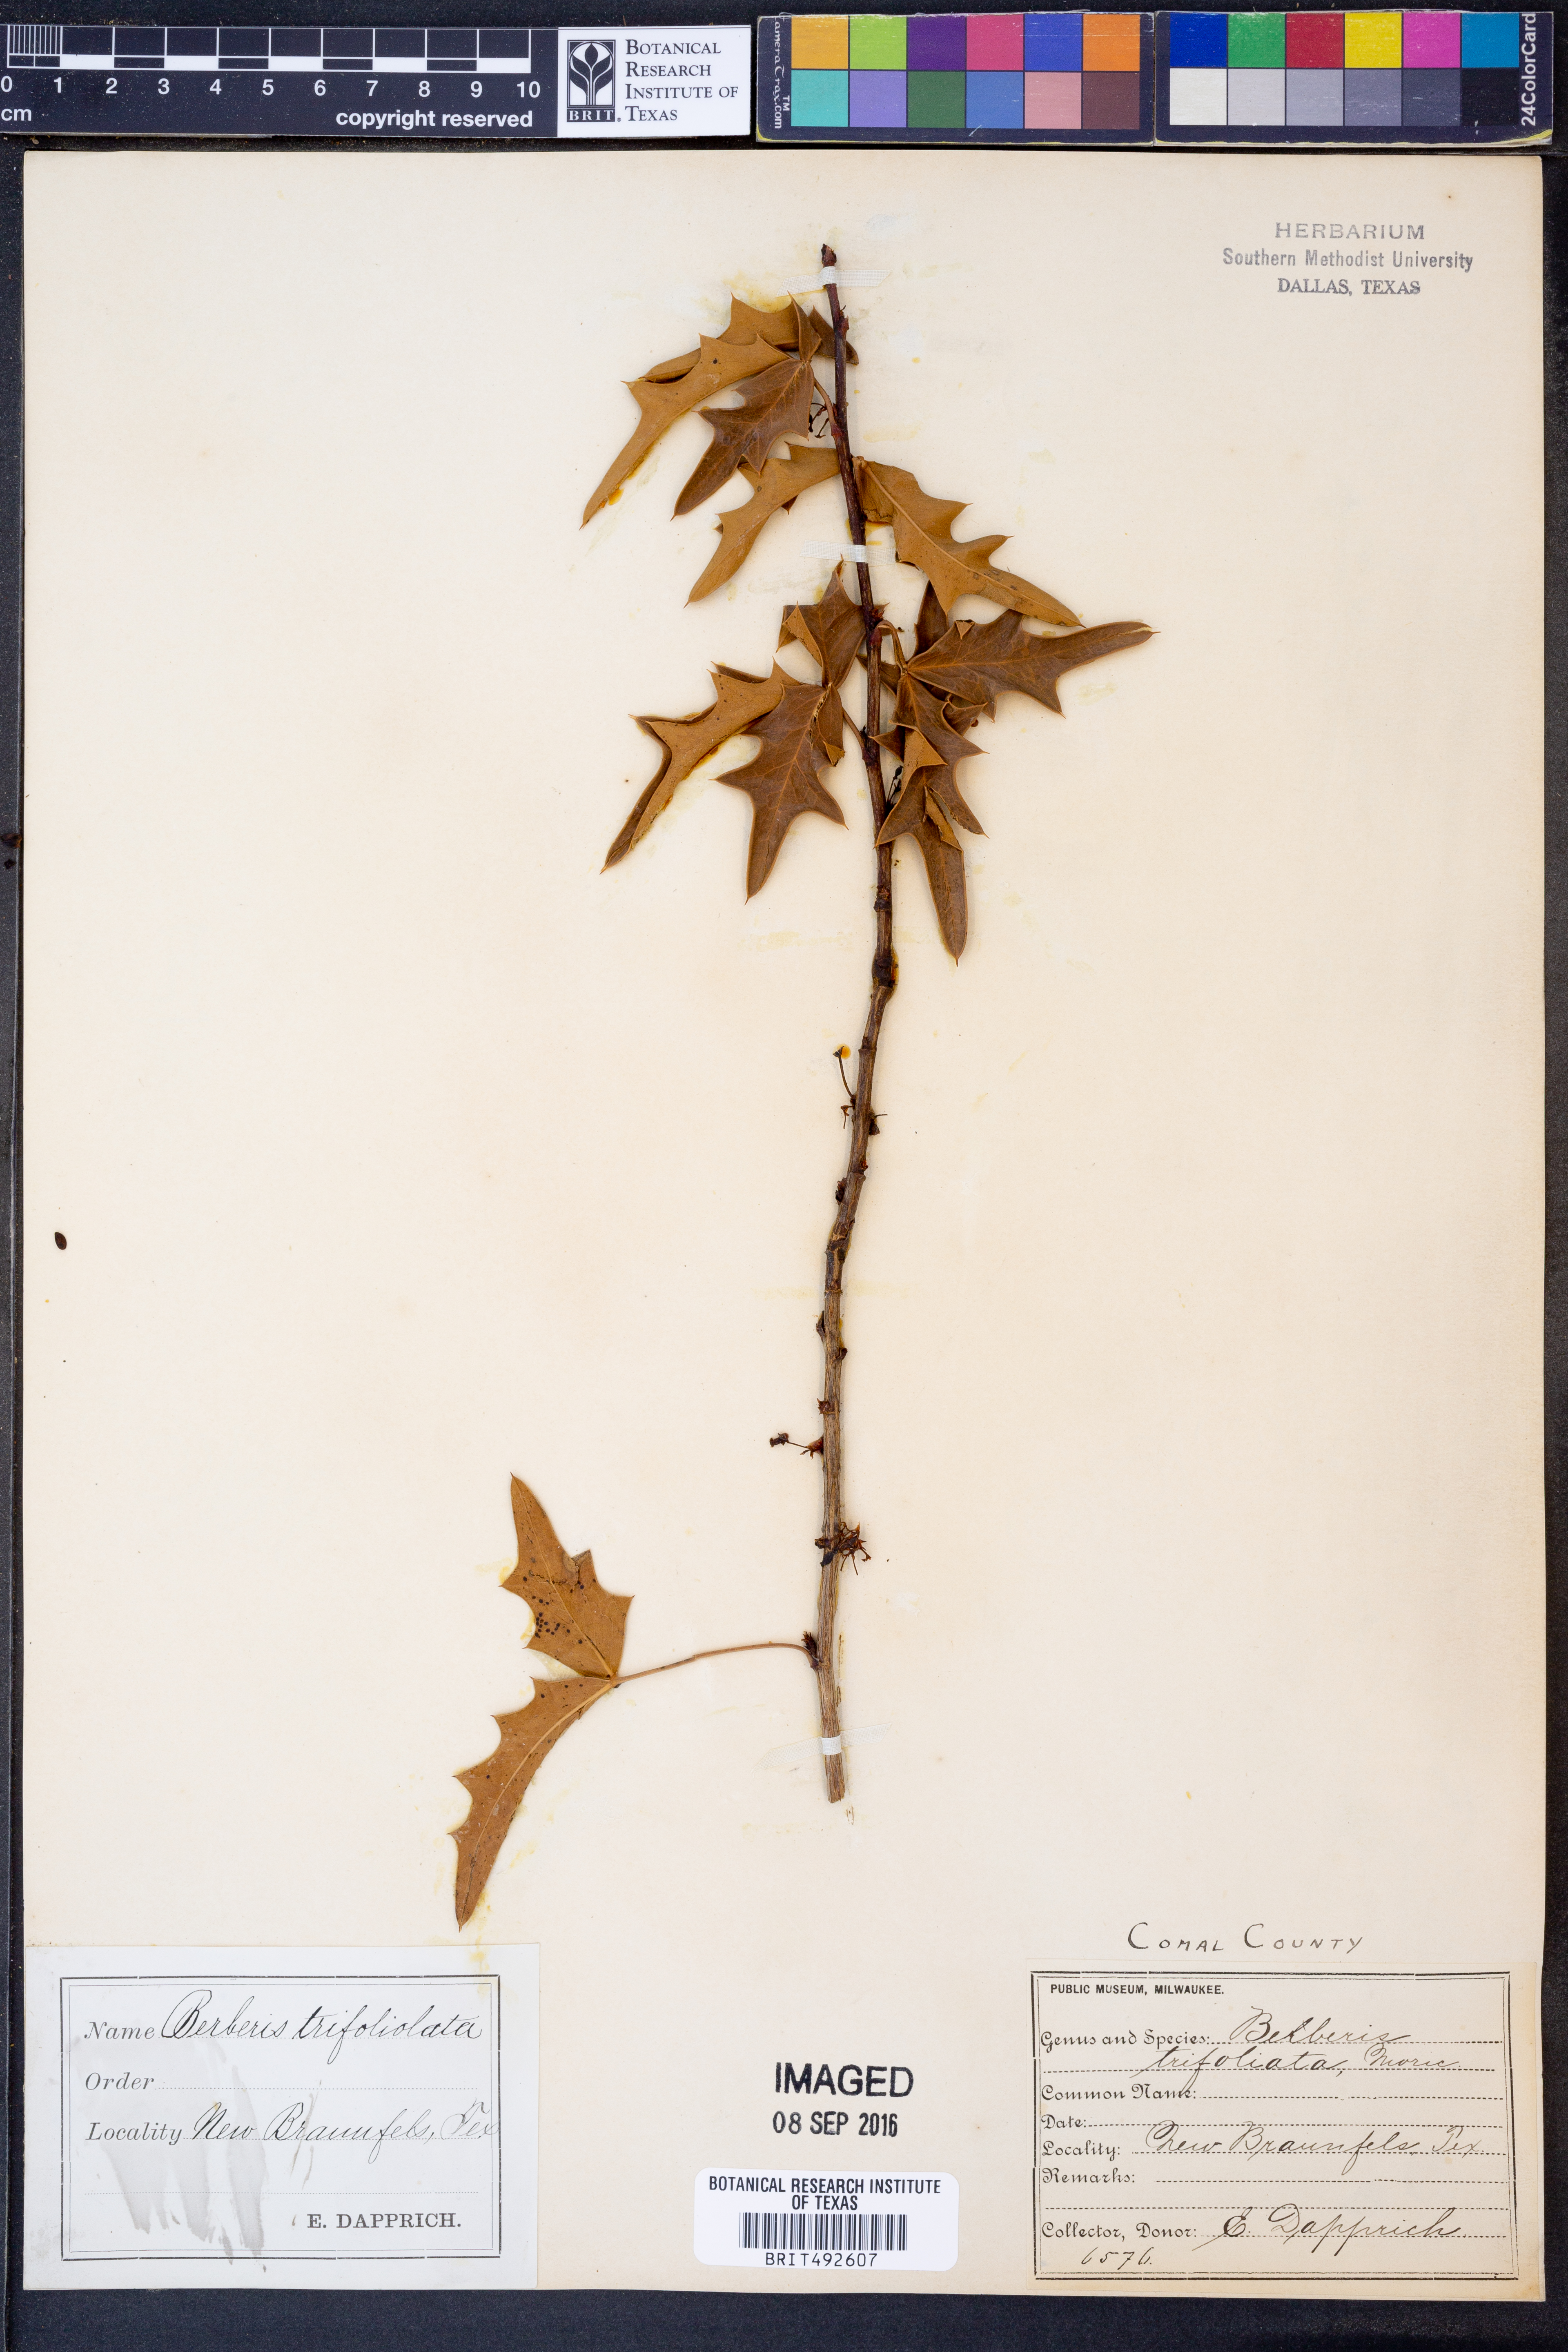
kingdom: Plantae
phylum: Tracheophyta
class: Magnoliopsida
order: Ranunculales
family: Berberidaceae
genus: Alloberberis
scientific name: Alloberberis trifoliolata
